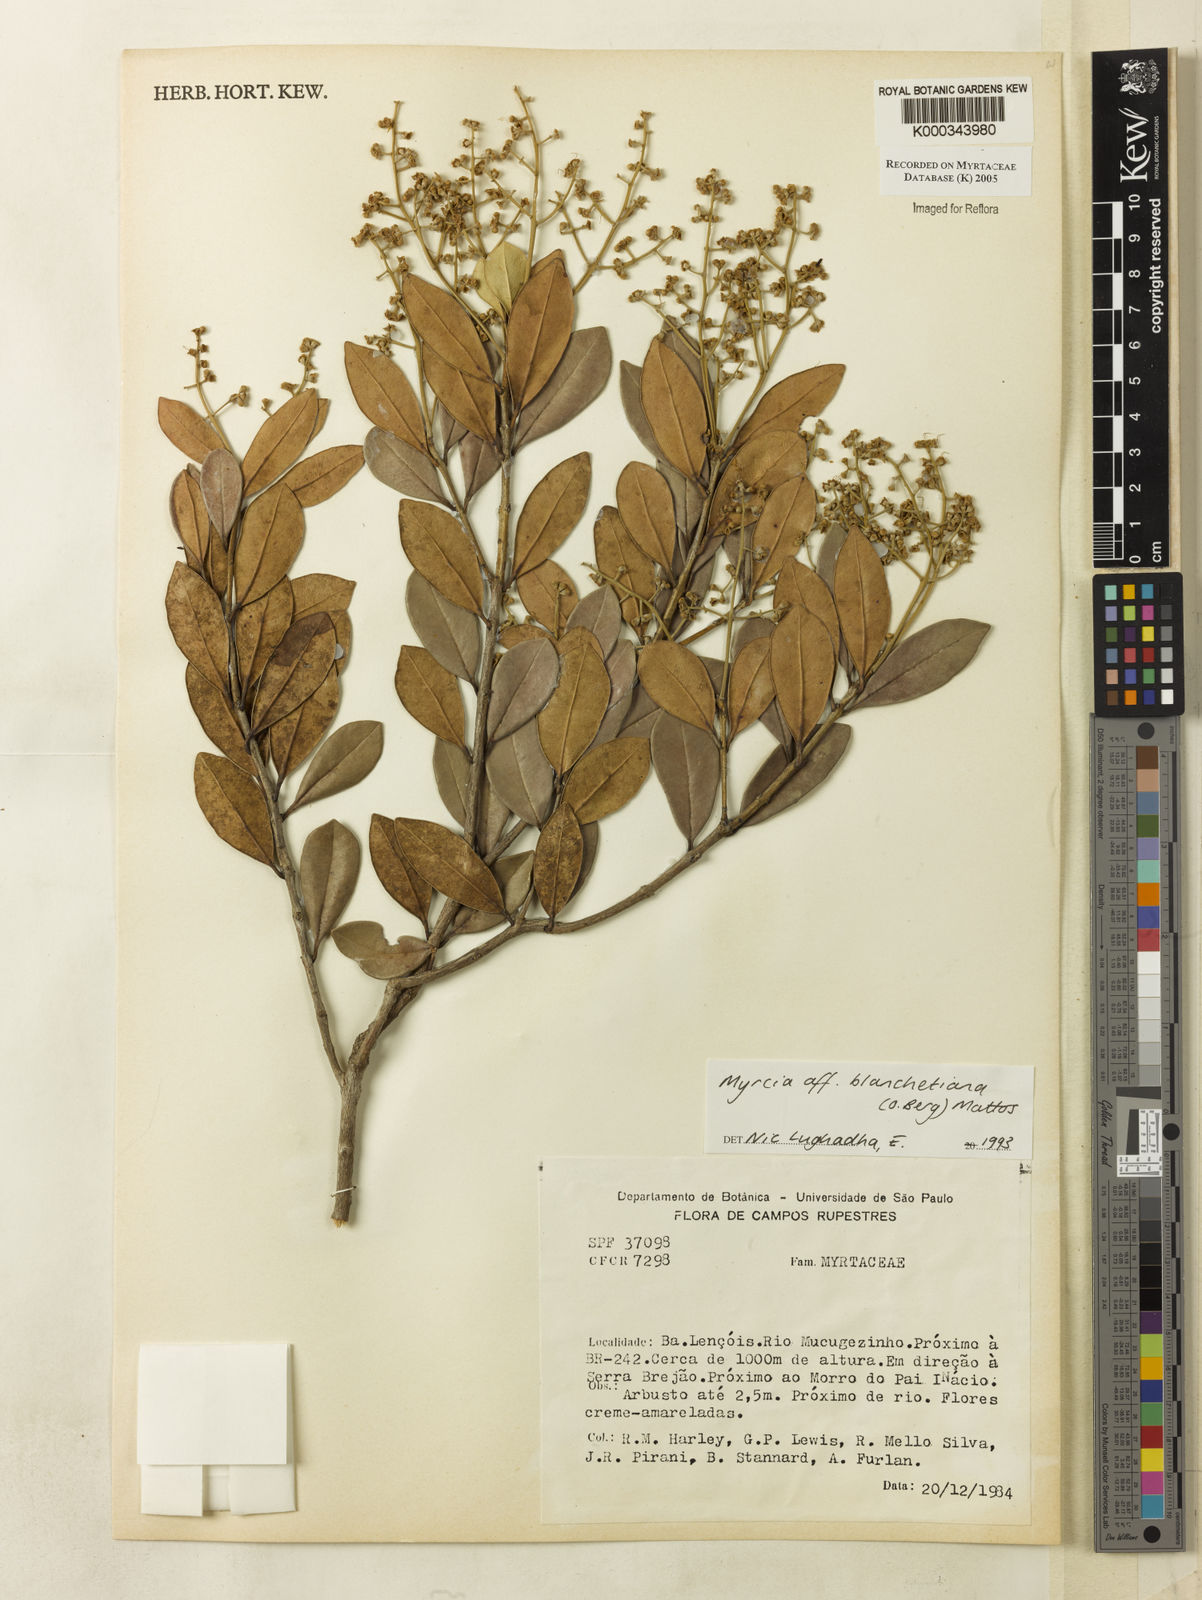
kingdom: Plantae
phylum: Tracheophyta
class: Magnoliopsida
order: Myrtales
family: Myrtaceae
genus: Myrcia
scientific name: Myrcia blanchetiana
